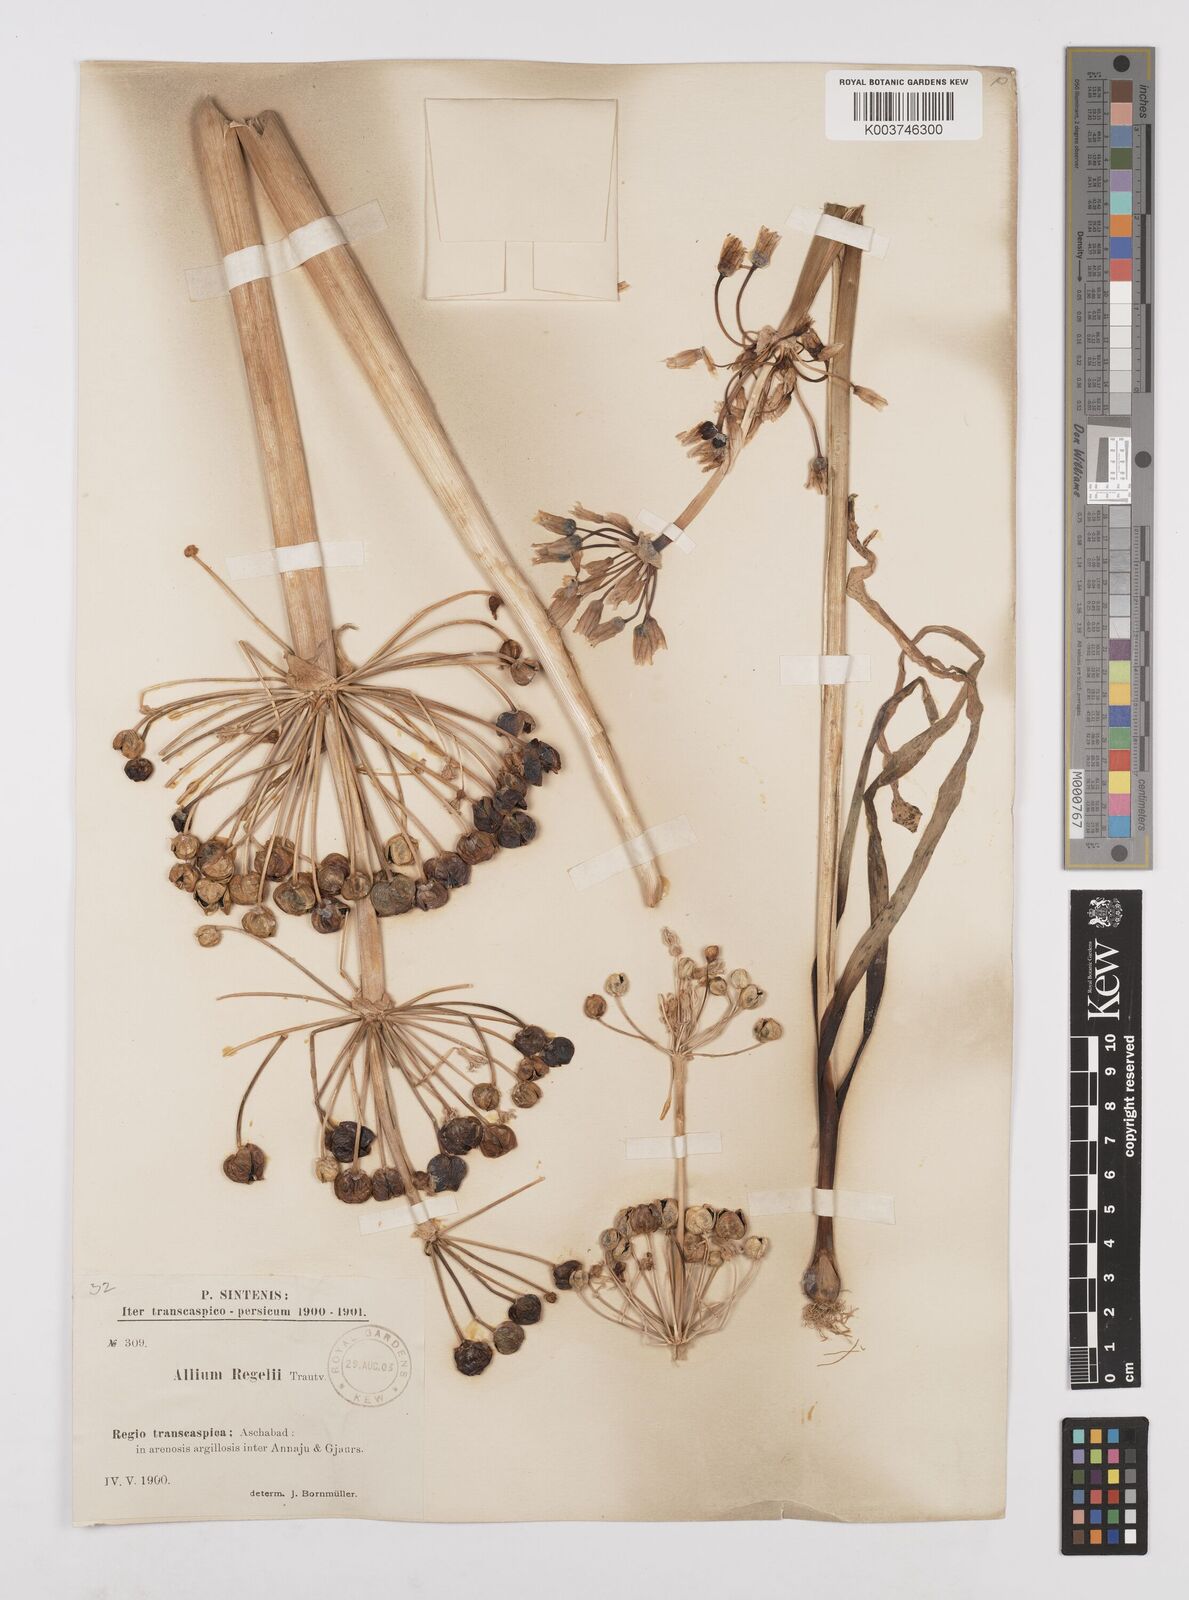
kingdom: Plantae
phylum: Tracheophyta
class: Liliopsida
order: Asparagales
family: Amaryllidaceae
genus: Allium
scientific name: Allium regelii
